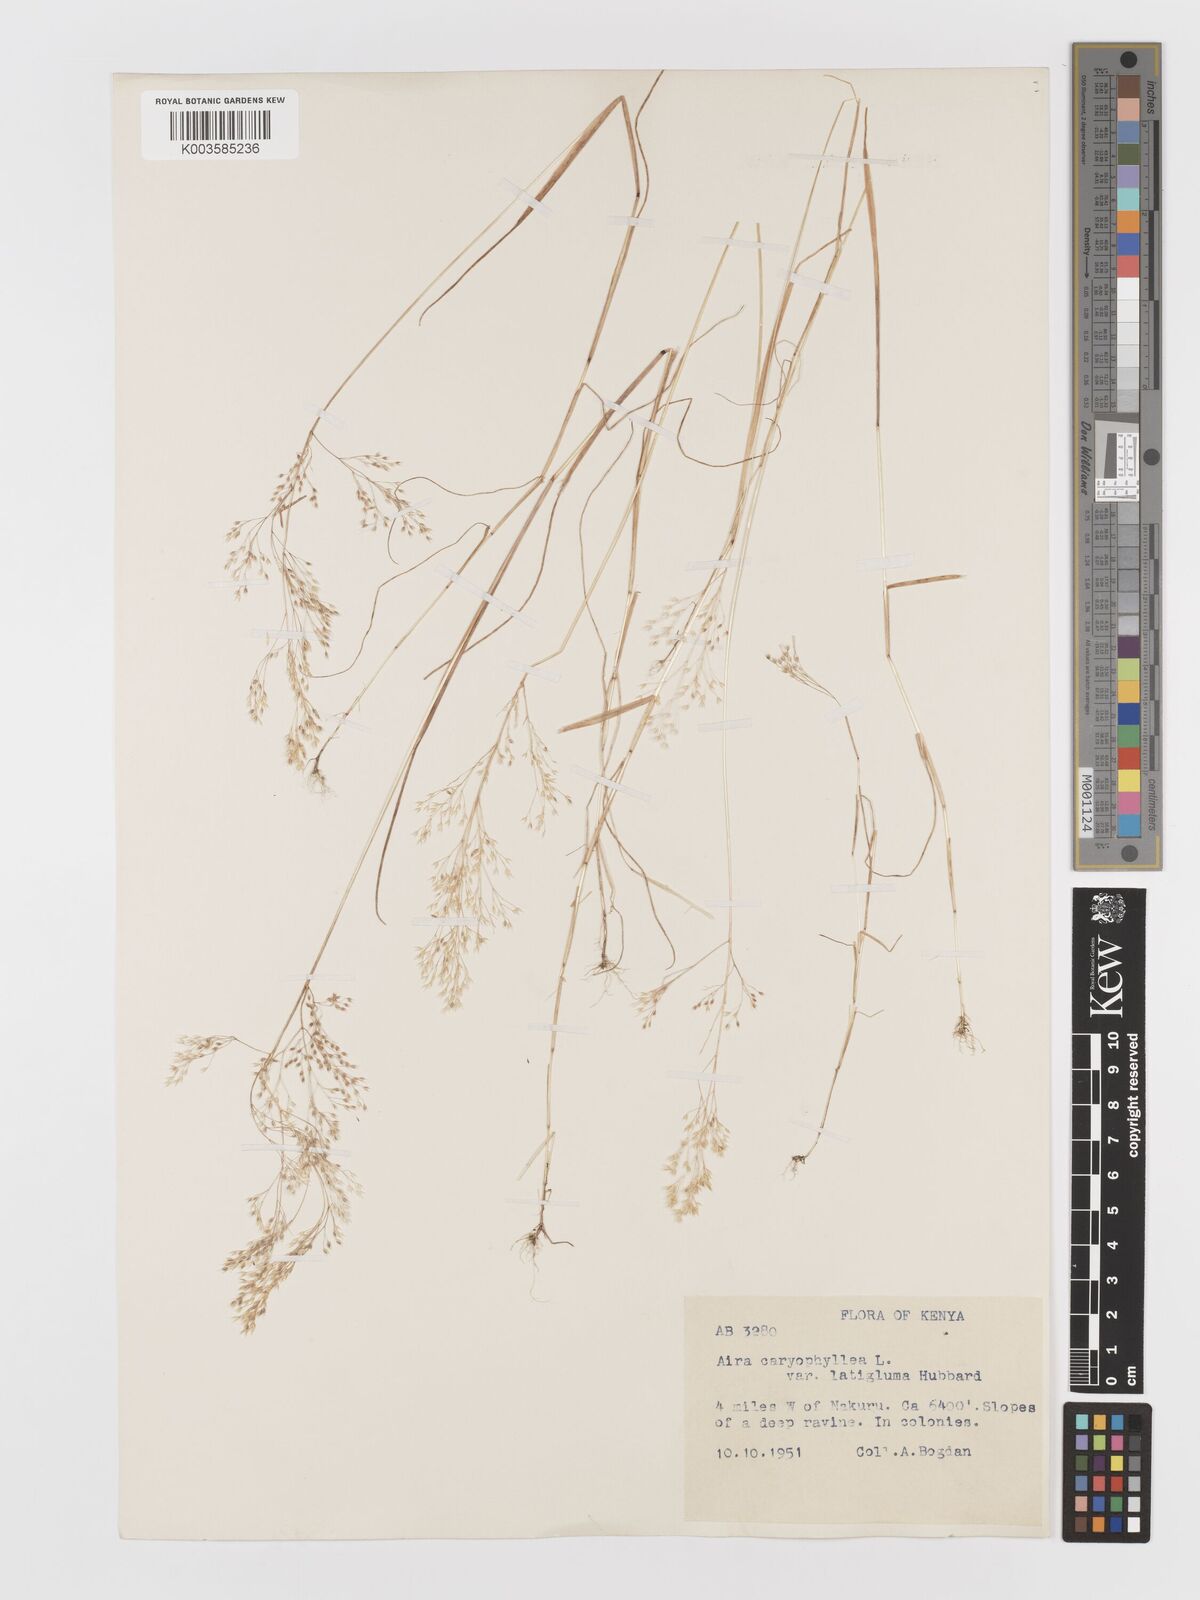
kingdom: Plantae
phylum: Tracheophyta
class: Liliopsida
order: Poales
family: Poaceae
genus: Aira
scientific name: Aira caryophyllea
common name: Silver hairgrass
